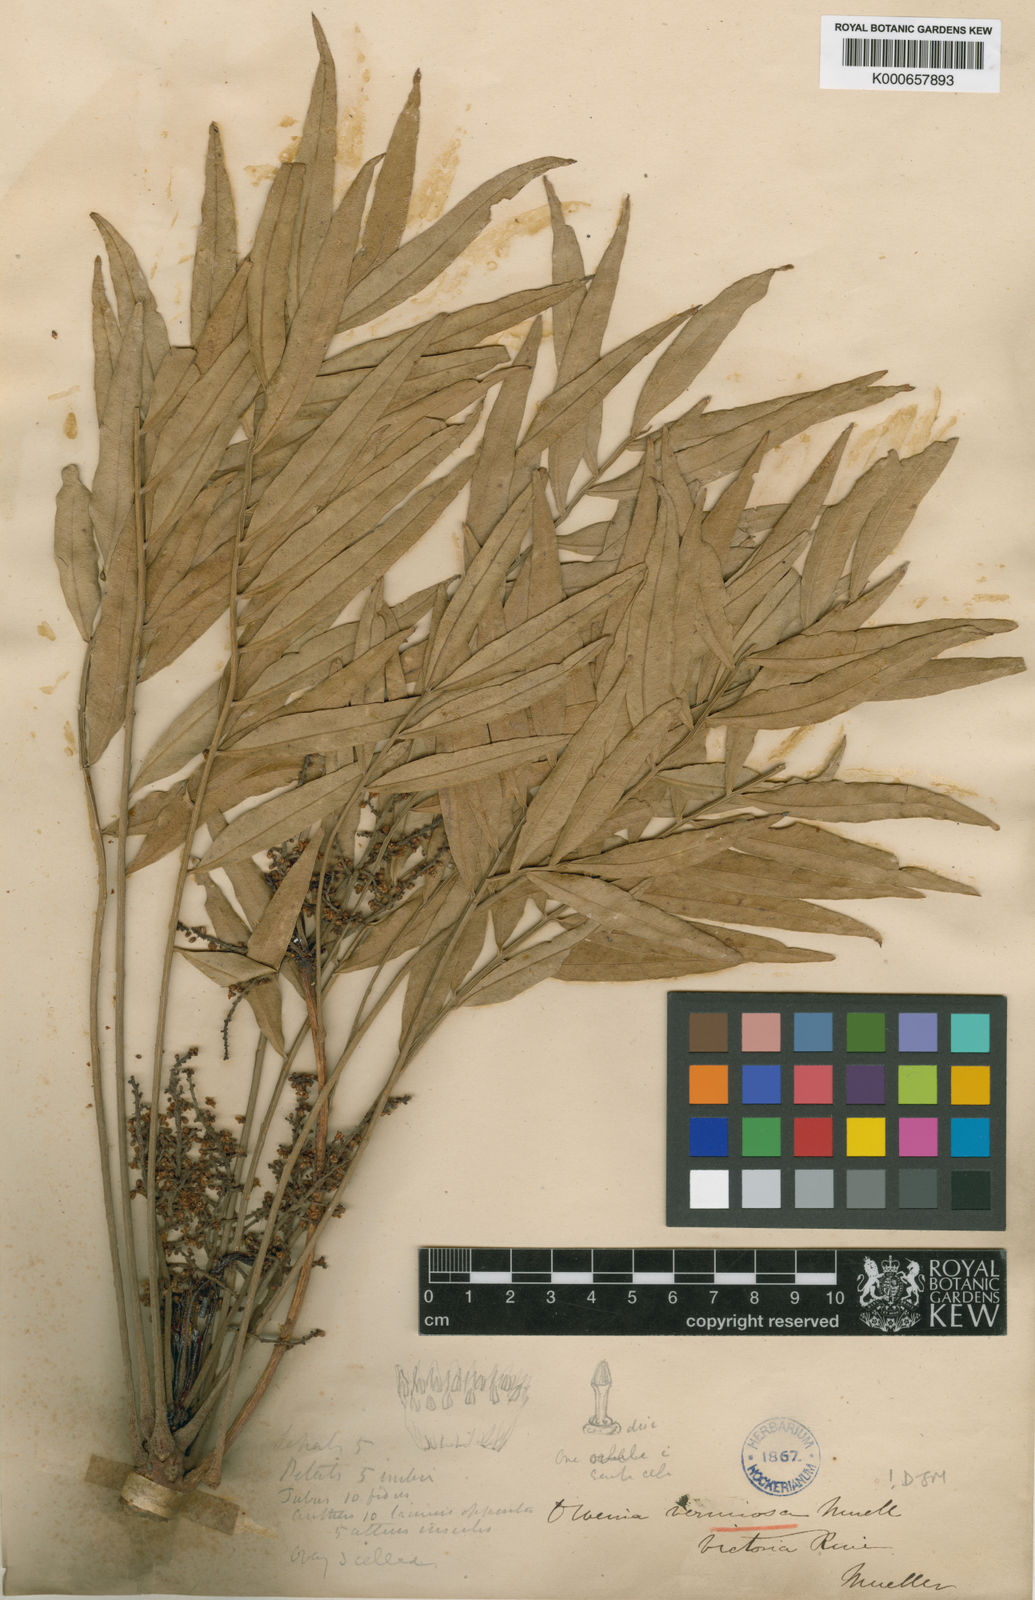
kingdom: Plantae
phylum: Tracheophyta
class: Magnoliopsida
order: Sapindales
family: Meliaceae
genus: Owenia
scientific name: Owenia vernicosa
